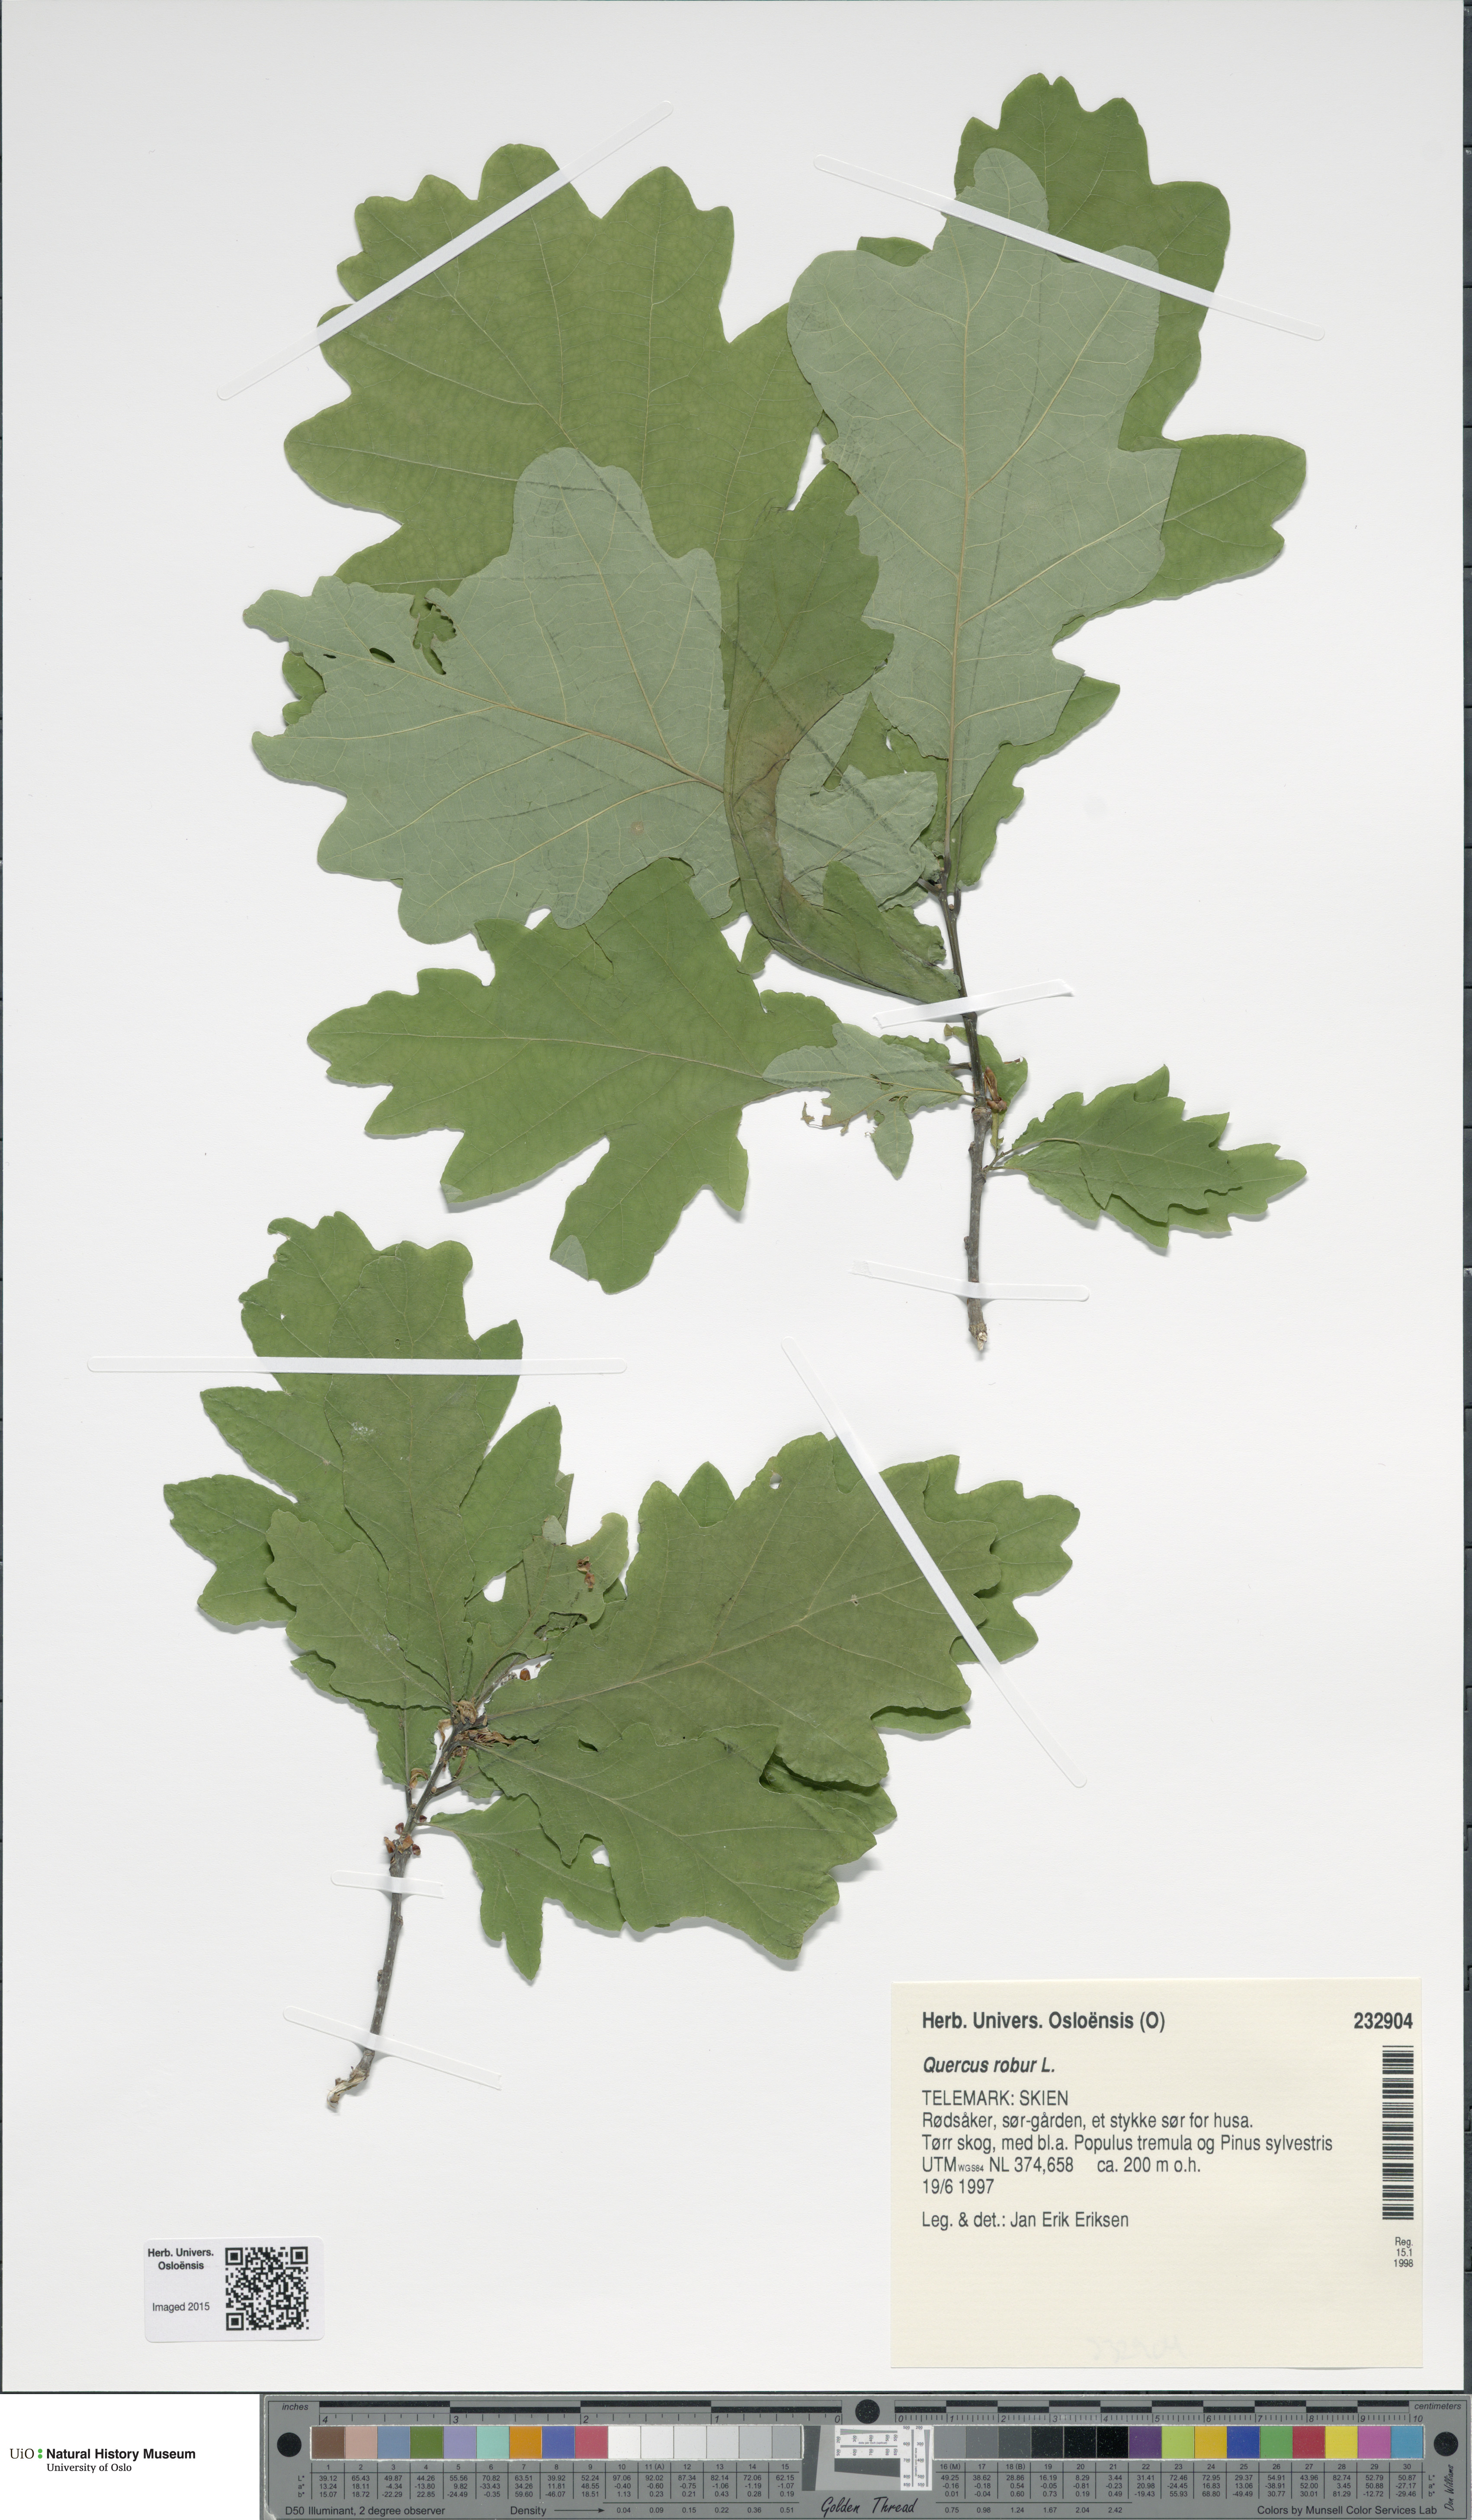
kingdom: Plantae
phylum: Tracheophyta
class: Magnoliopsida
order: Fagales
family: Fagaceae
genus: Quercus
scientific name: Quercus robur
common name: Pedunculate oak
